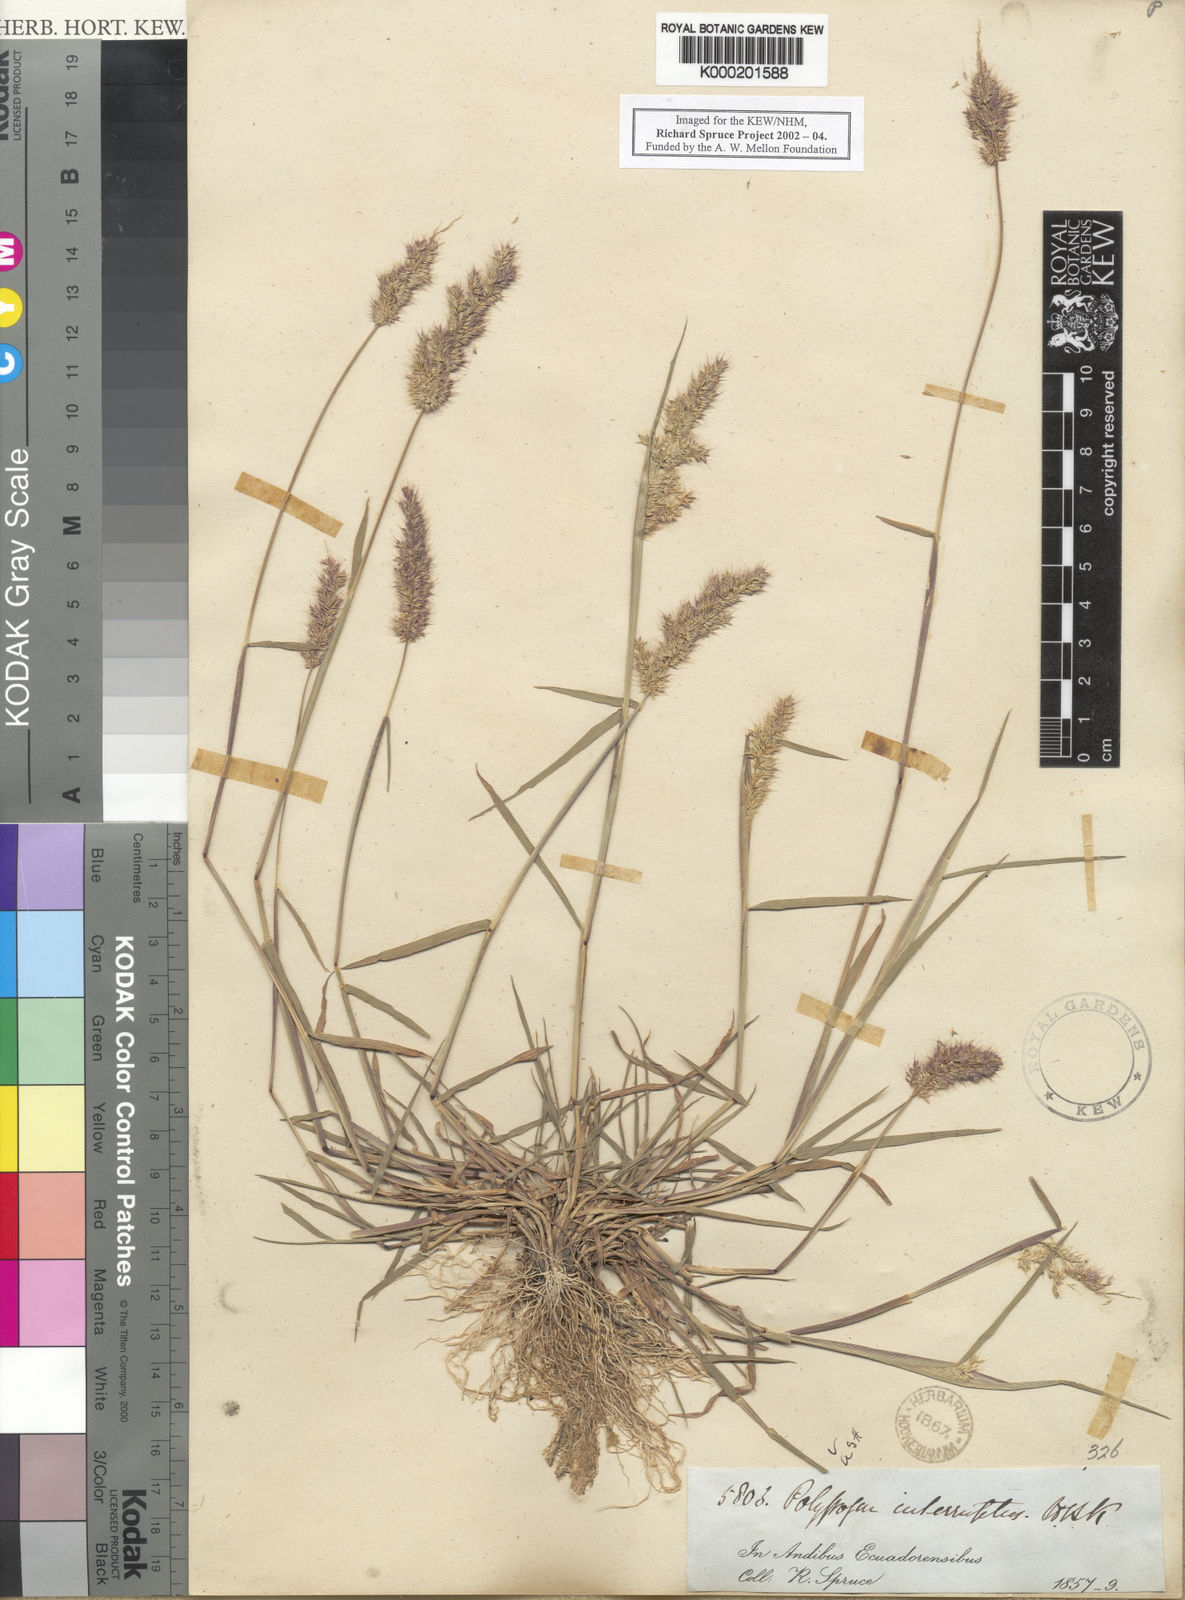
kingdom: Plantae
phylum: Tracheophyta
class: Liliopsida
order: Poales
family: Poaceae
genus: Polypogon
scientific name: Polypogon elongatus
